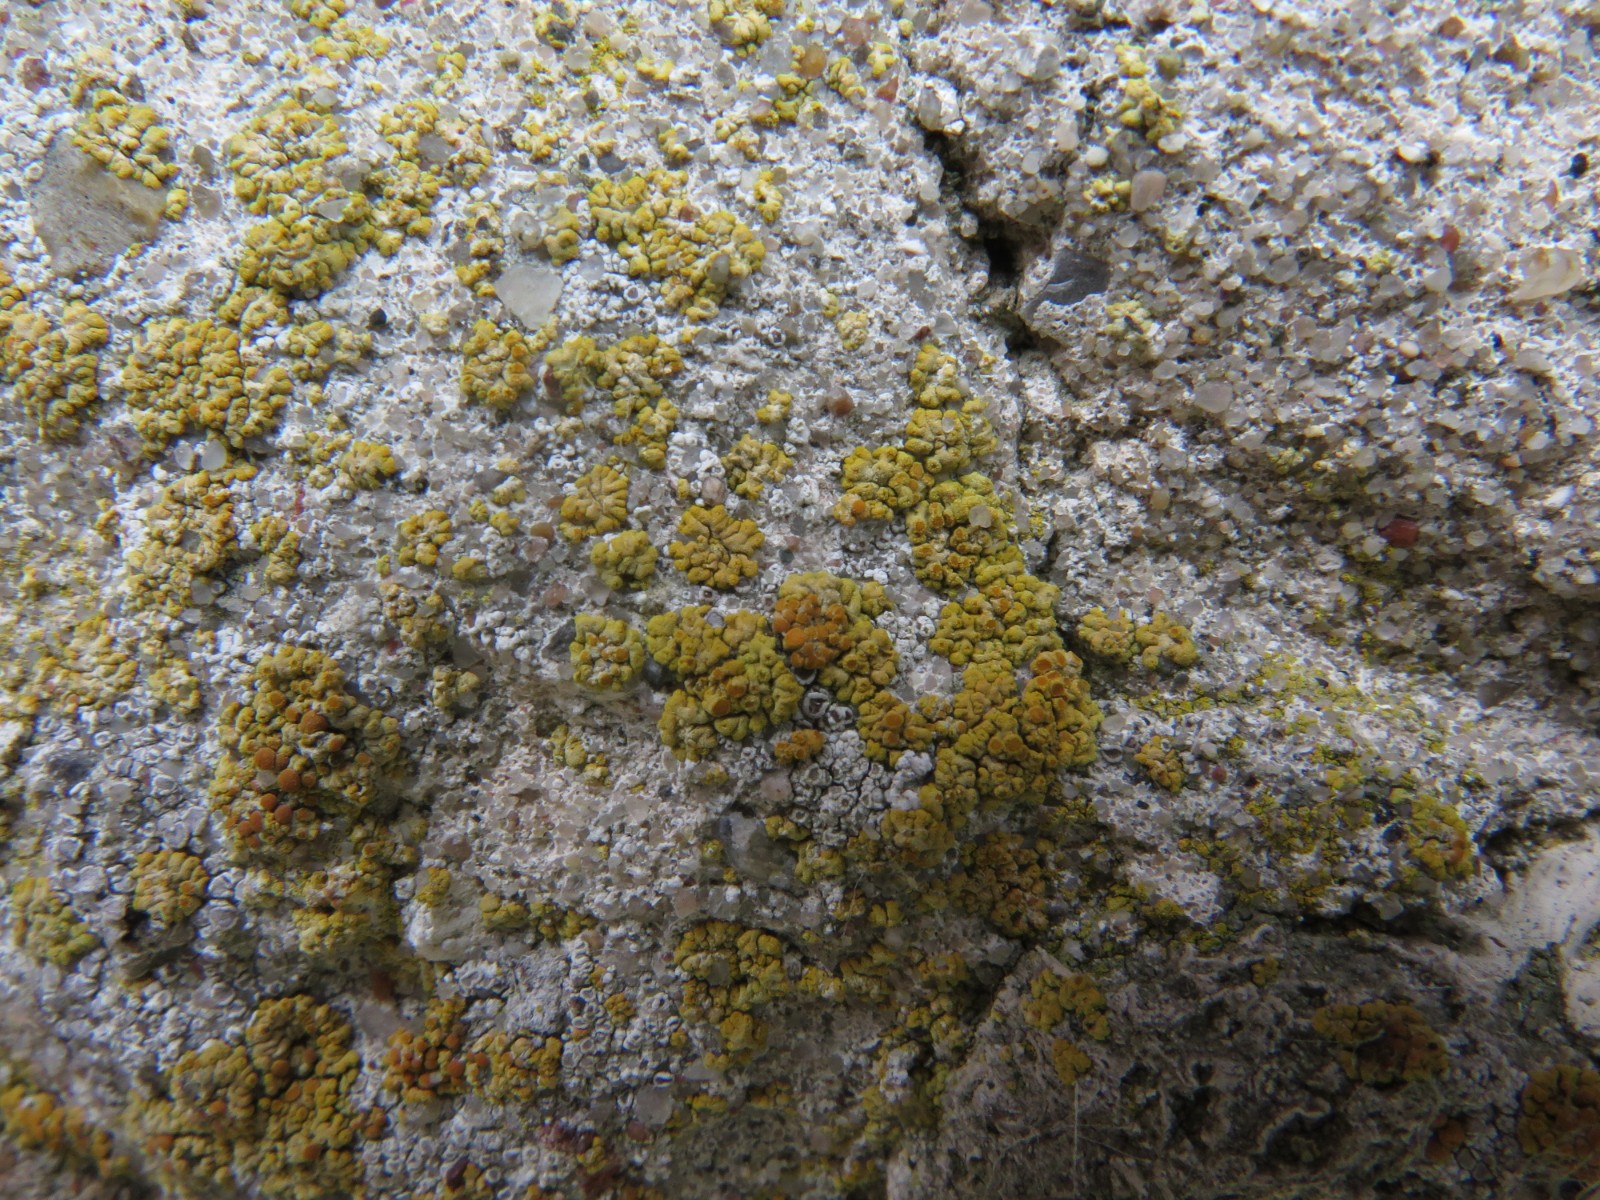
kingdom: Fungi
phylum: Ascomycota
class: Lecanoromycetes
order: Teloschistales
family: Teloschistaceae
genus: Calogaya
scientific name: Calogaya
